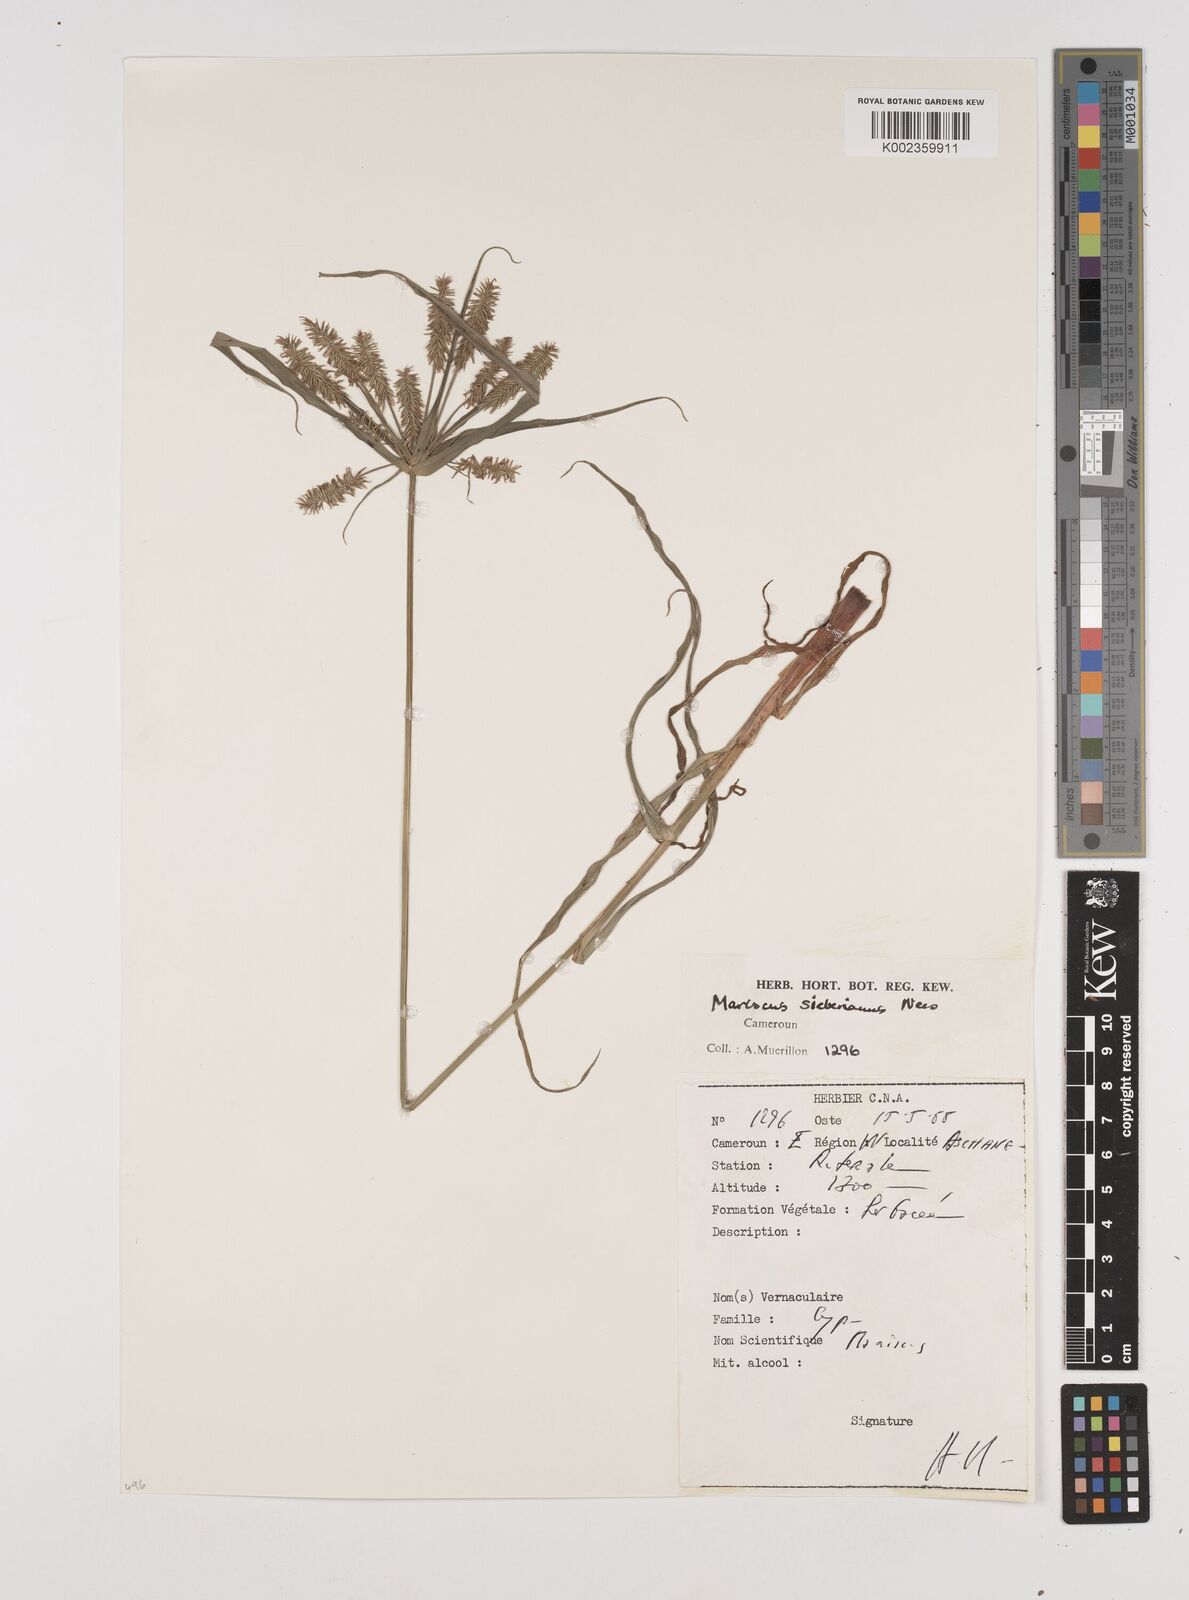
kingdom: Plantae
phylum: Tracheophyta
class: Liliopsida
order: Poales
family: Cyperaceae
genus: Cyperus
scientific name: Cyperus cyperoides
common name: Pacific island flat sedge
